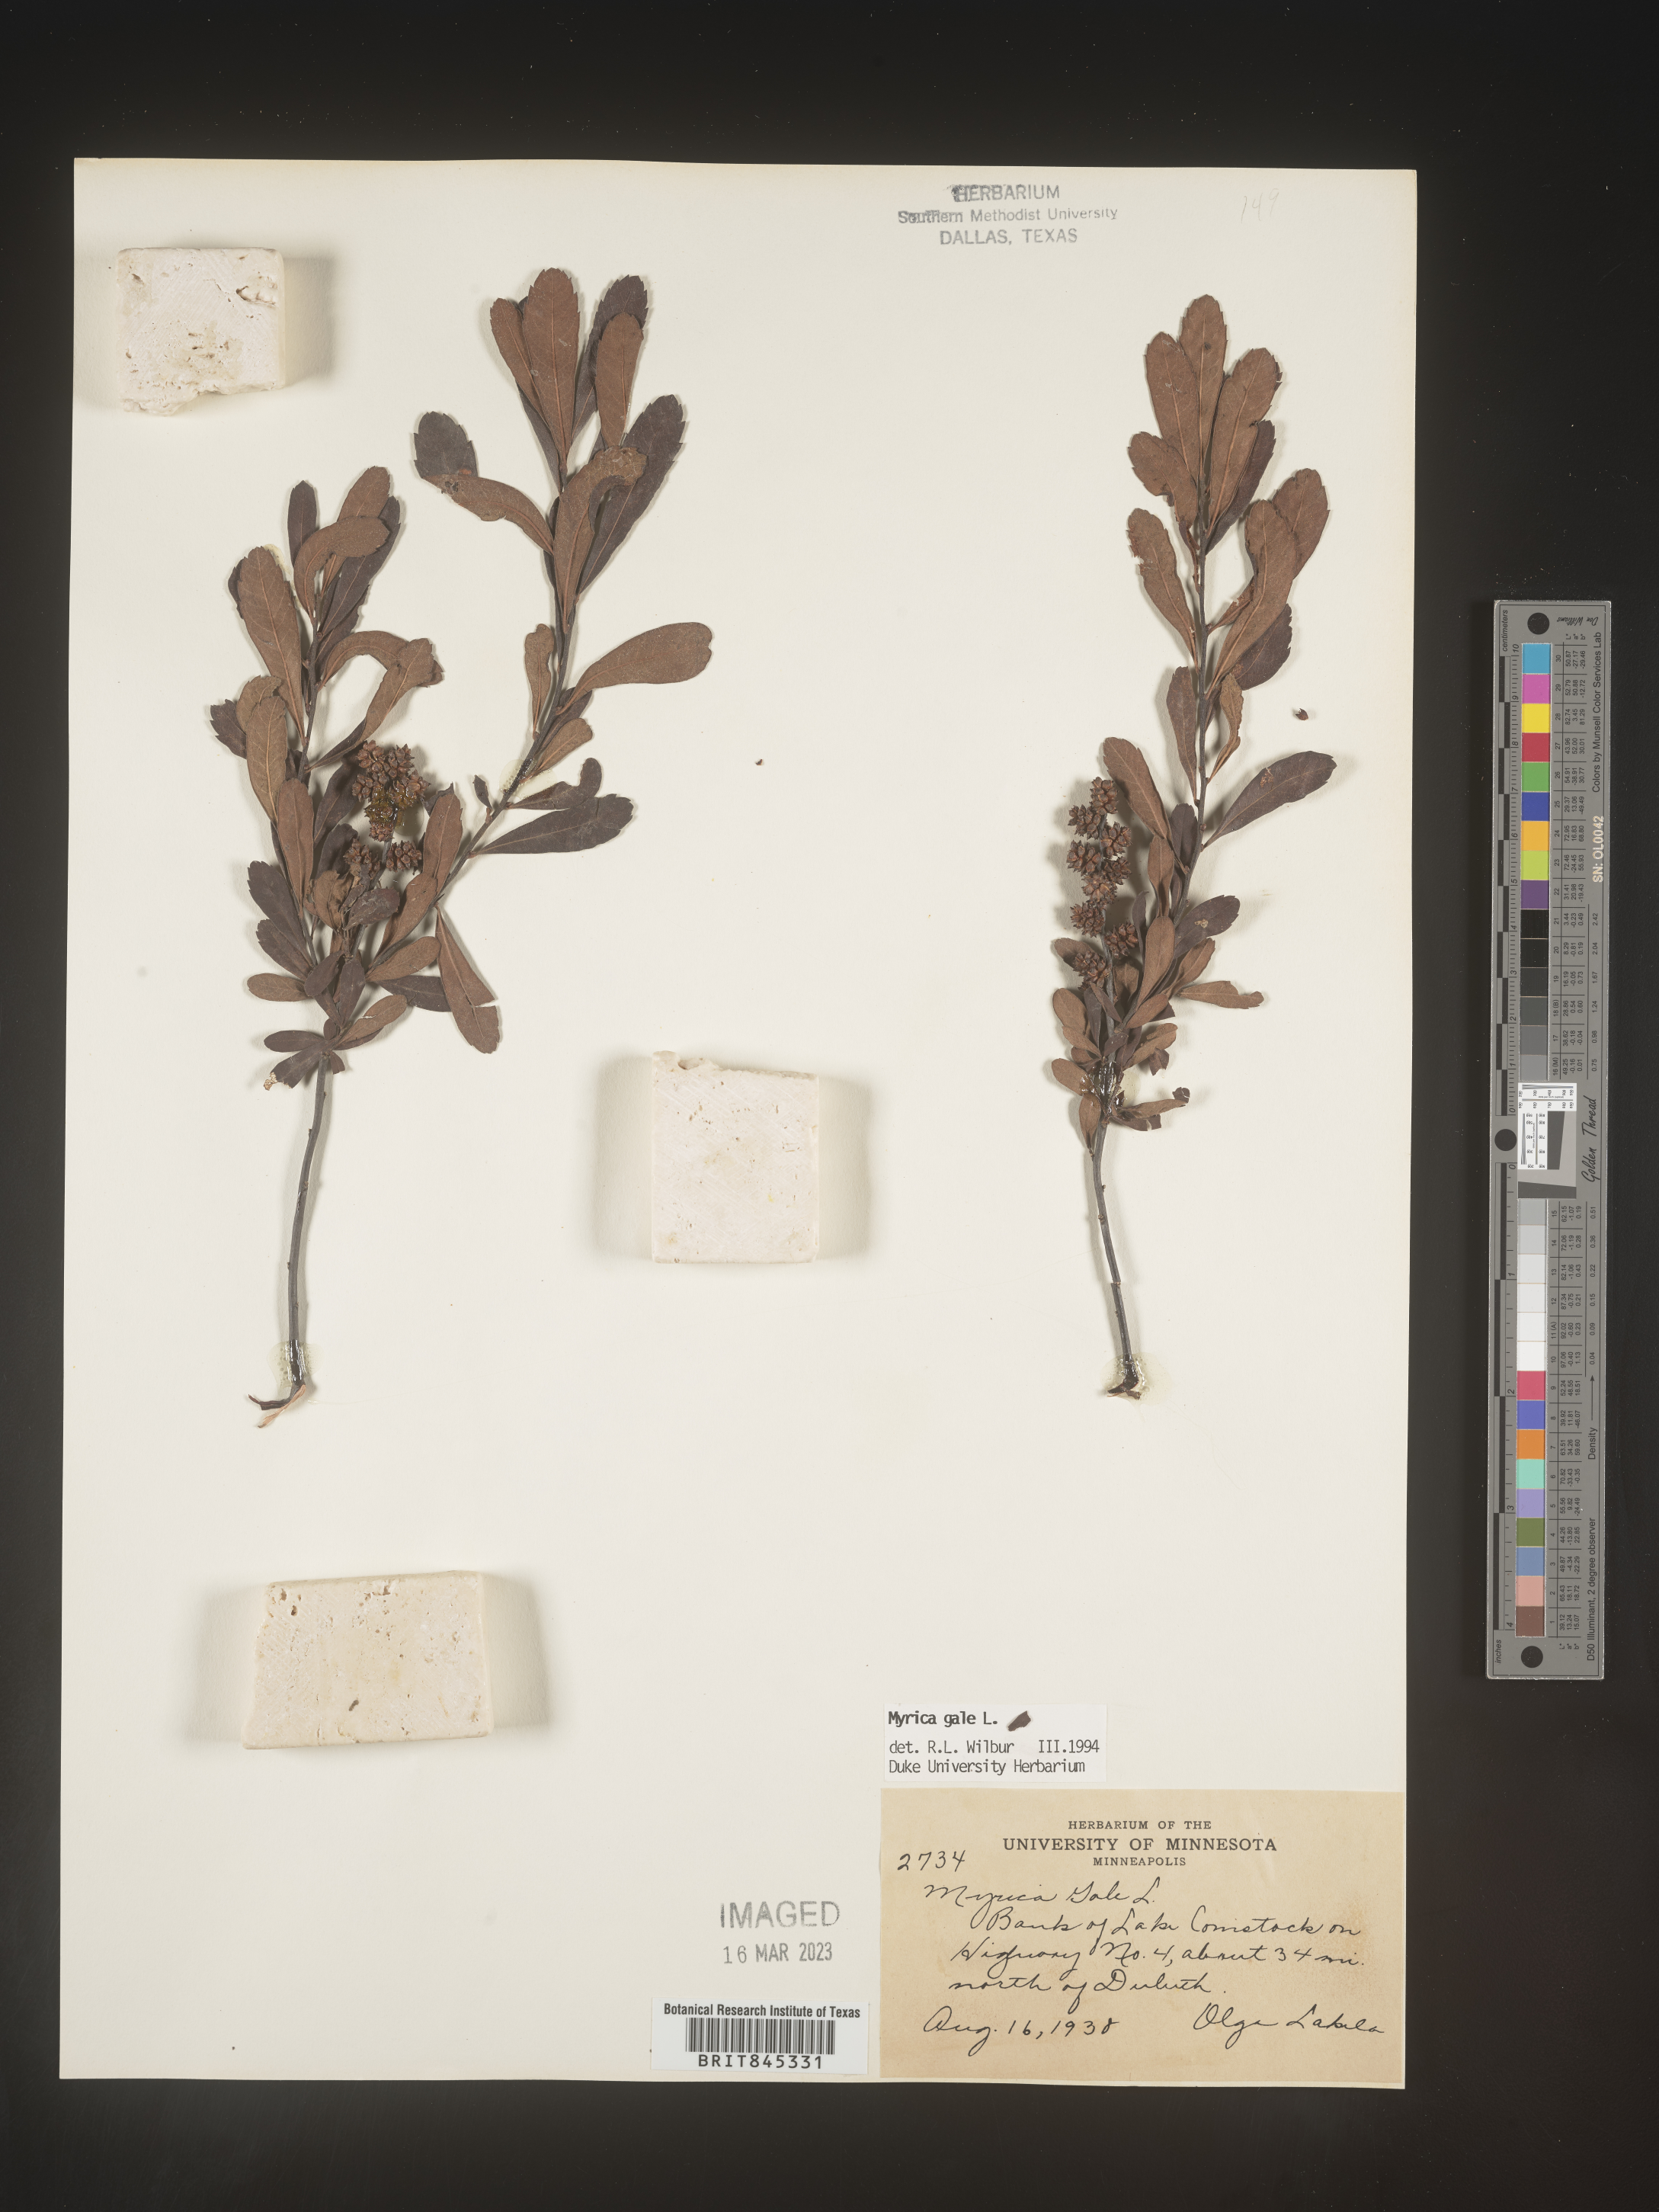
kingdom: Plantae
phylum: Tracheophyta
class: Magnoliopsida
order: Fagales
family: Myricaceae
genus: Myrica
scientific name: Myrica gale
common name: Sweet gale
